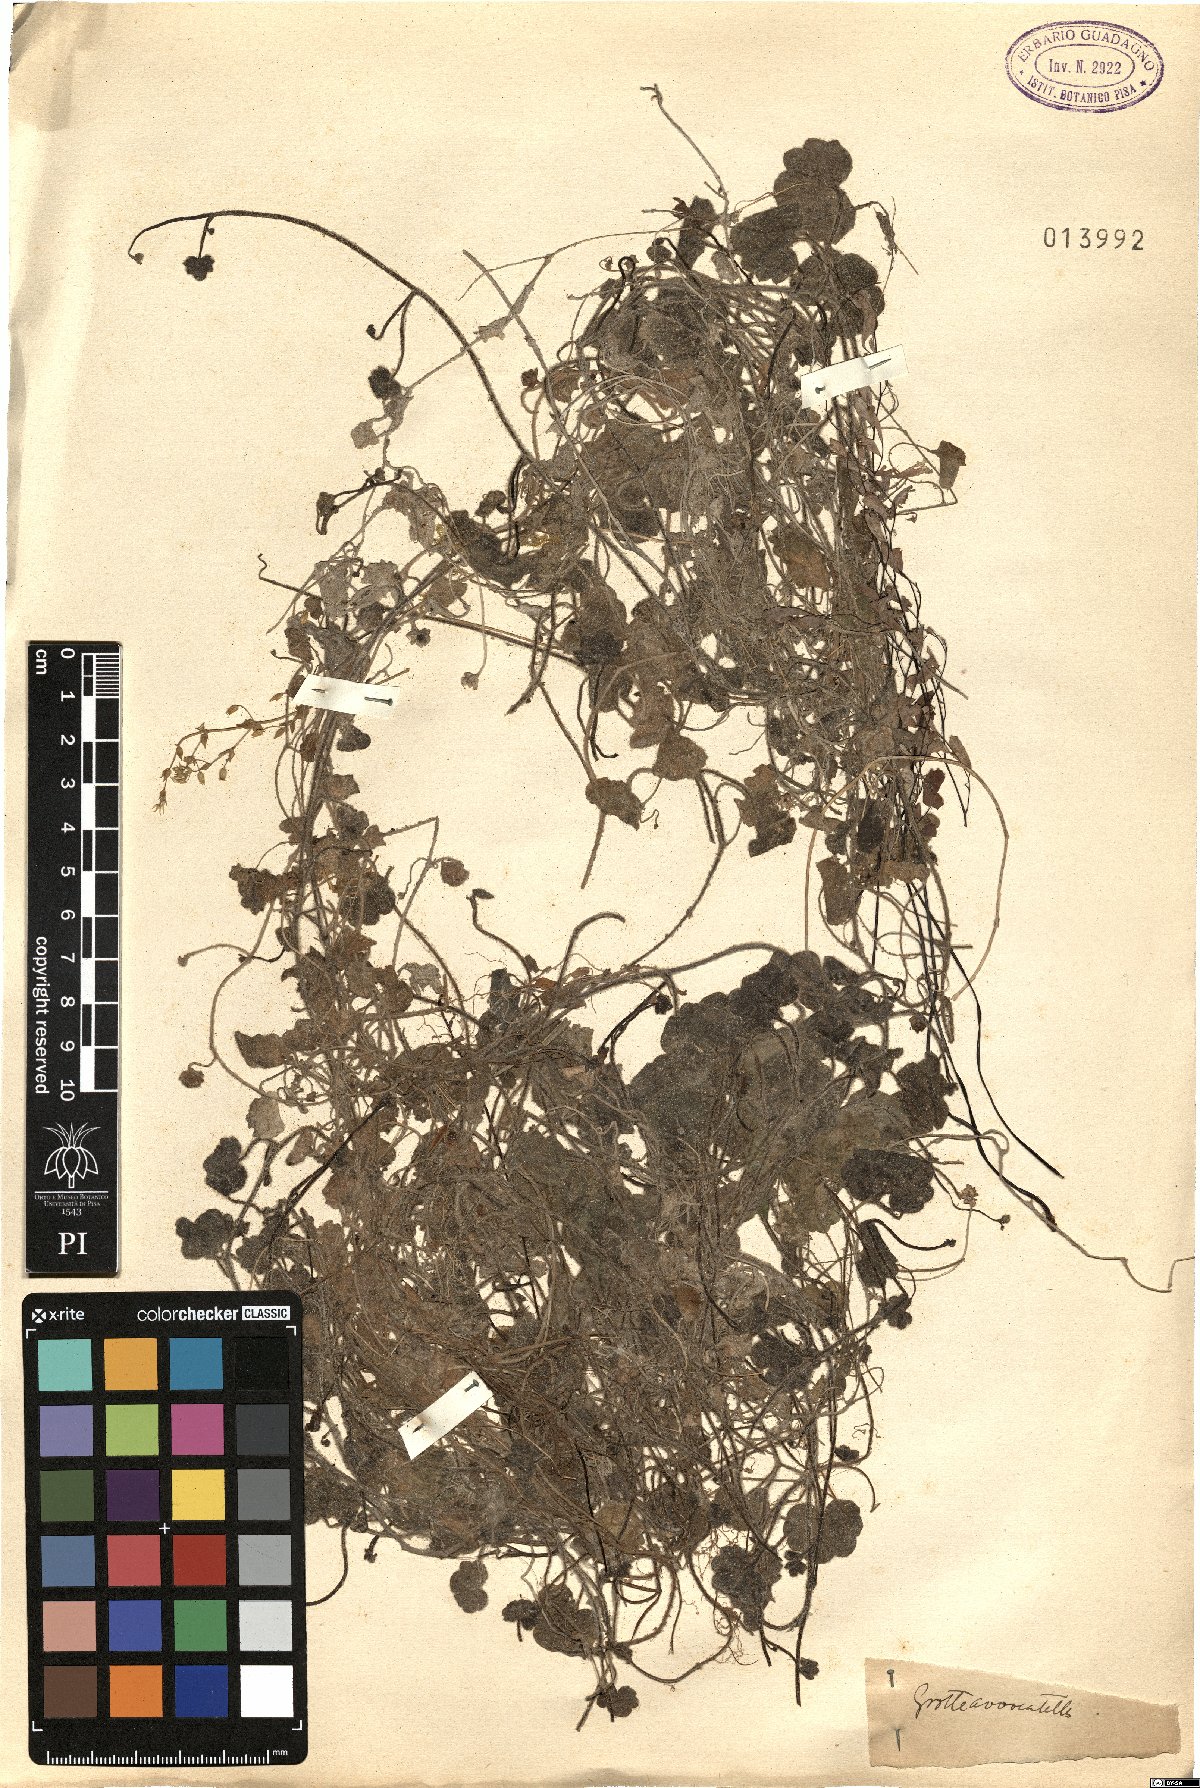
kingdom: Plantae
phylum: Tracheophyta
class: Magnoliopsida
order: Lamiales
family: Plantaginaceae
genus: Linaria
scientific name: Linaria
